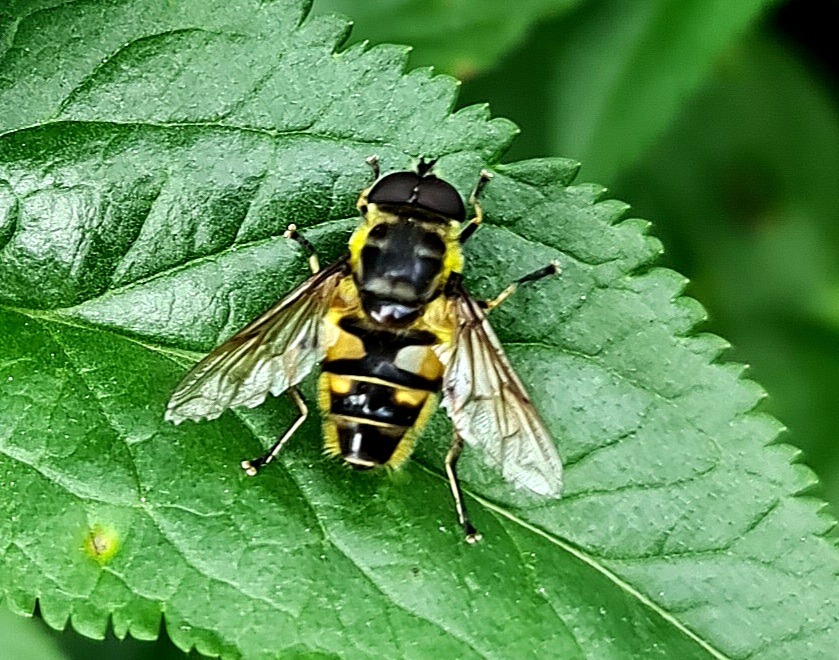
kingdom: Animalia
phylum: Arthropoda
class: Insecta
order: Diptera
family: Syrphidae
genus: Myathropa
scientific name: Myathropa florea
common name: Dødningehoved-svirreflue
